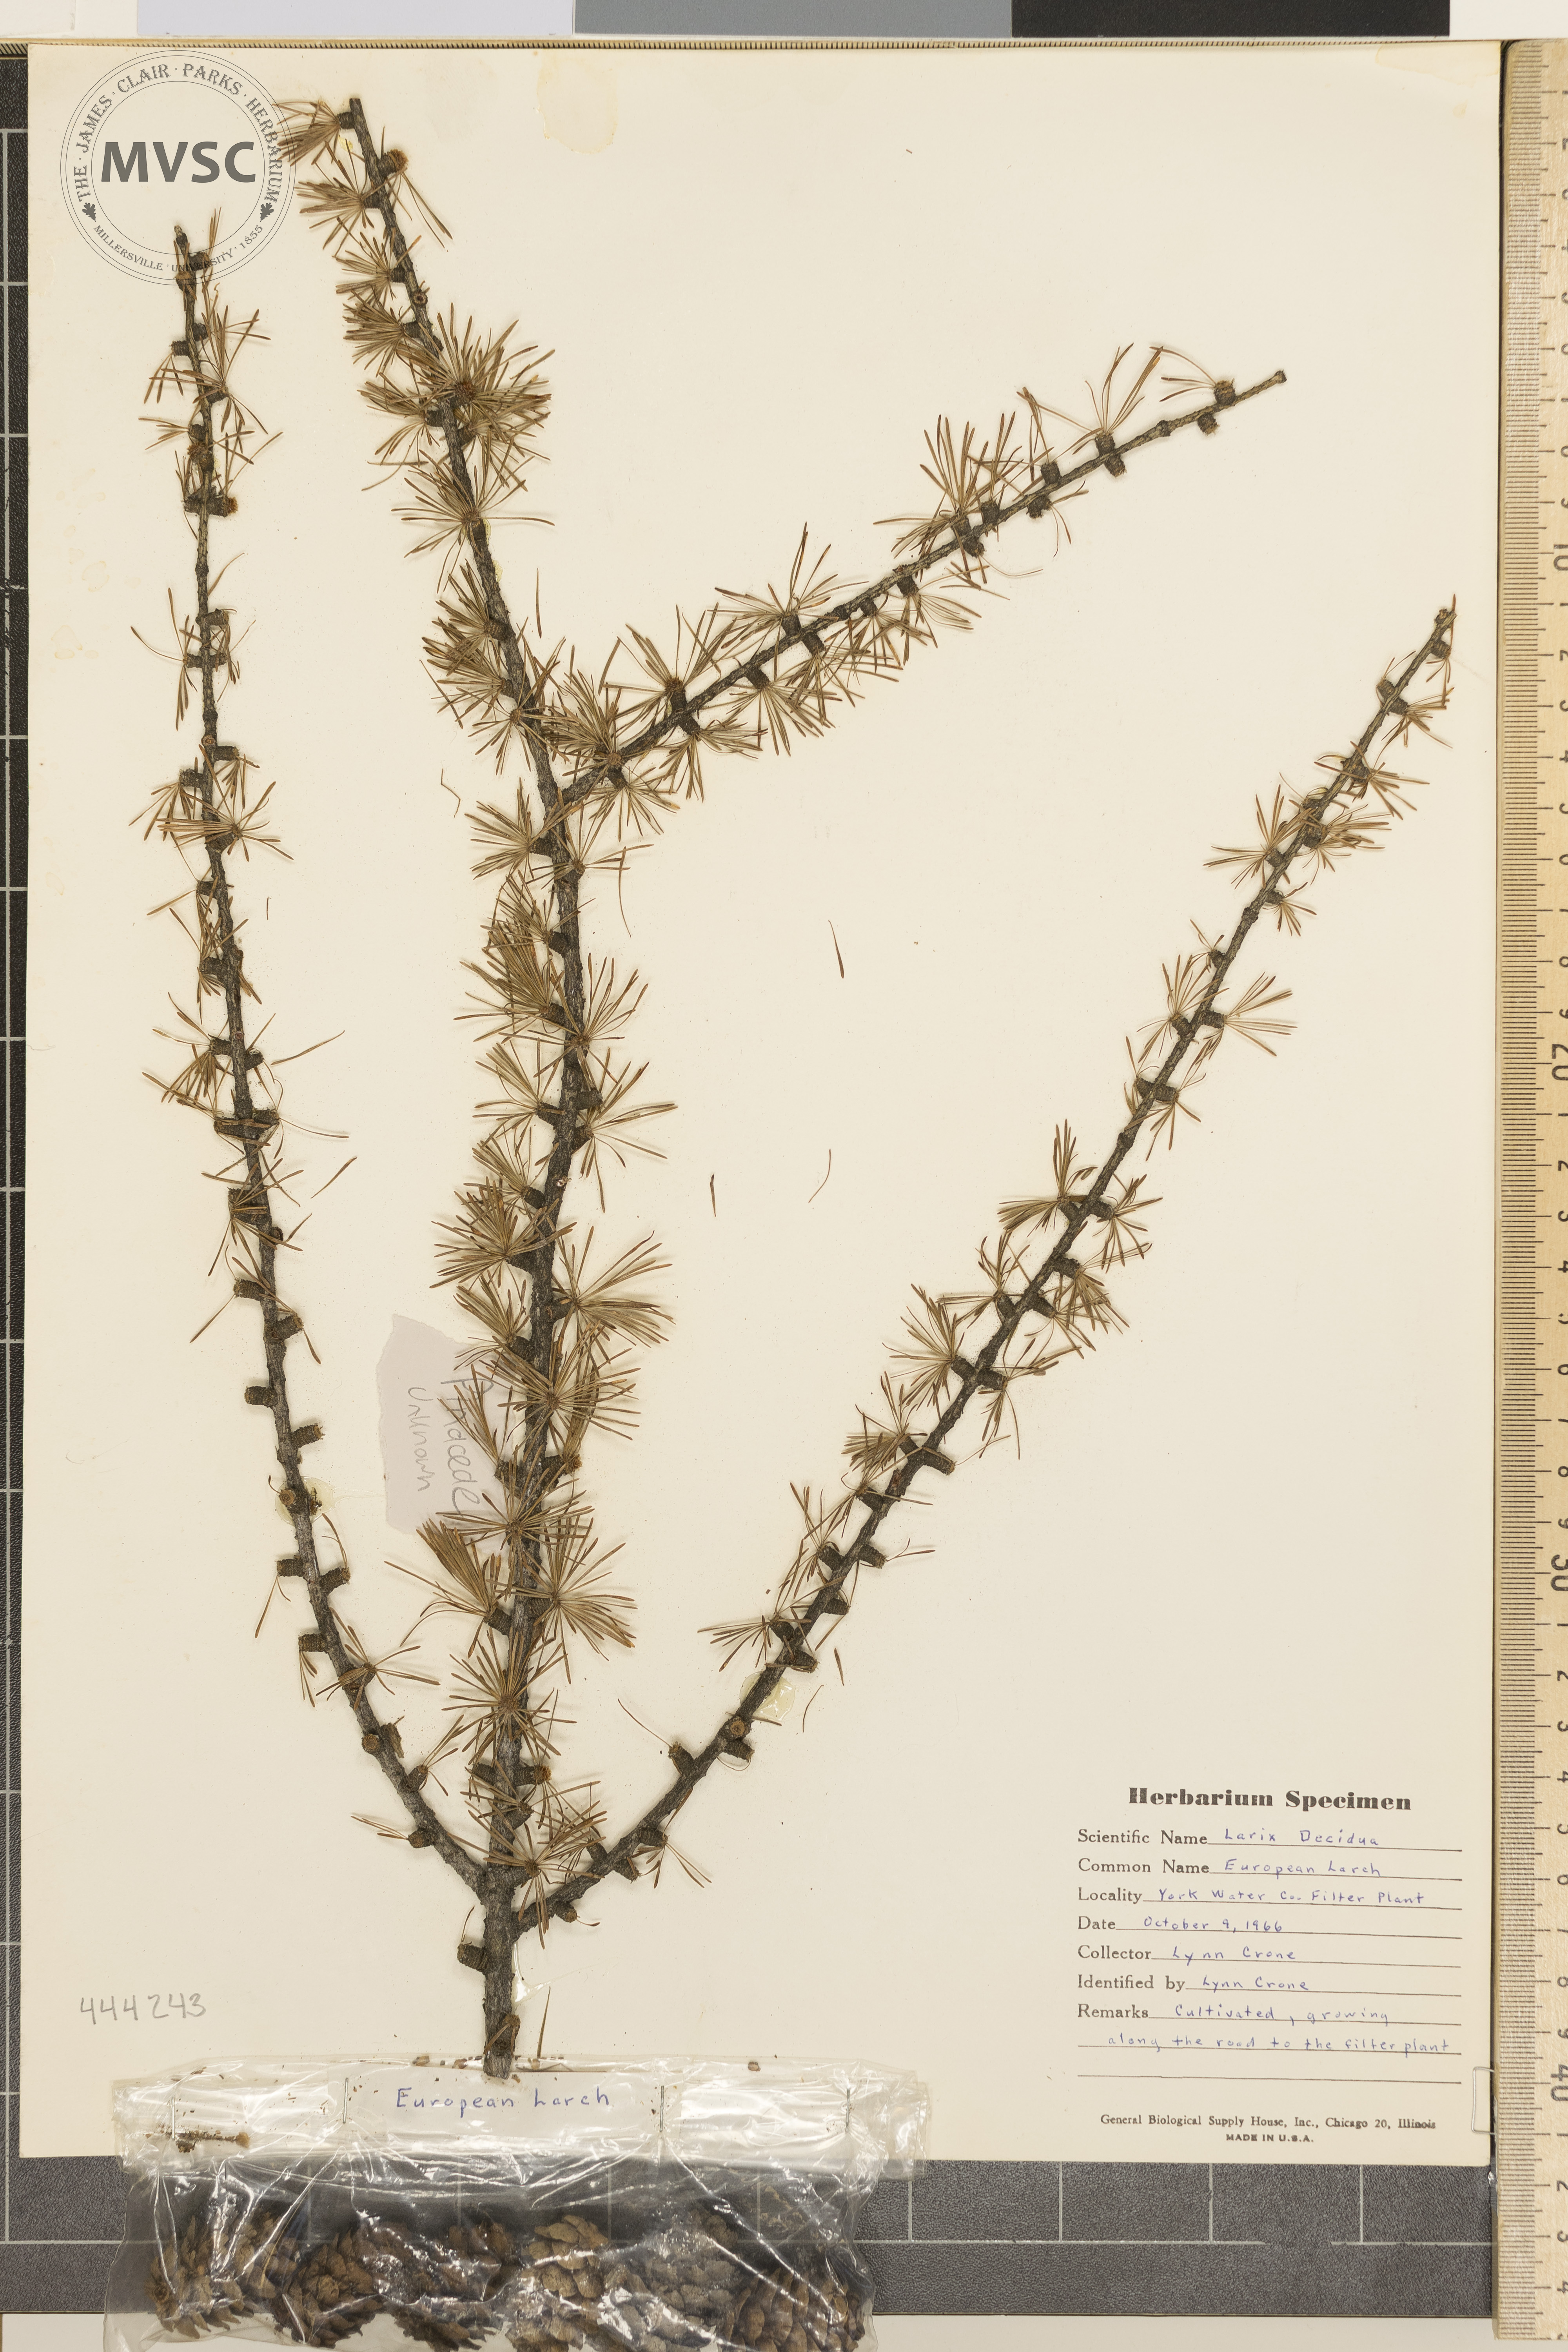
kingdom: Plantae
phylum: Tracheophyta
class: Pinopsida
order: Pinales
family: Pinaceae
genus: Larix
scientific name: Larix decidua
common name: European larch
